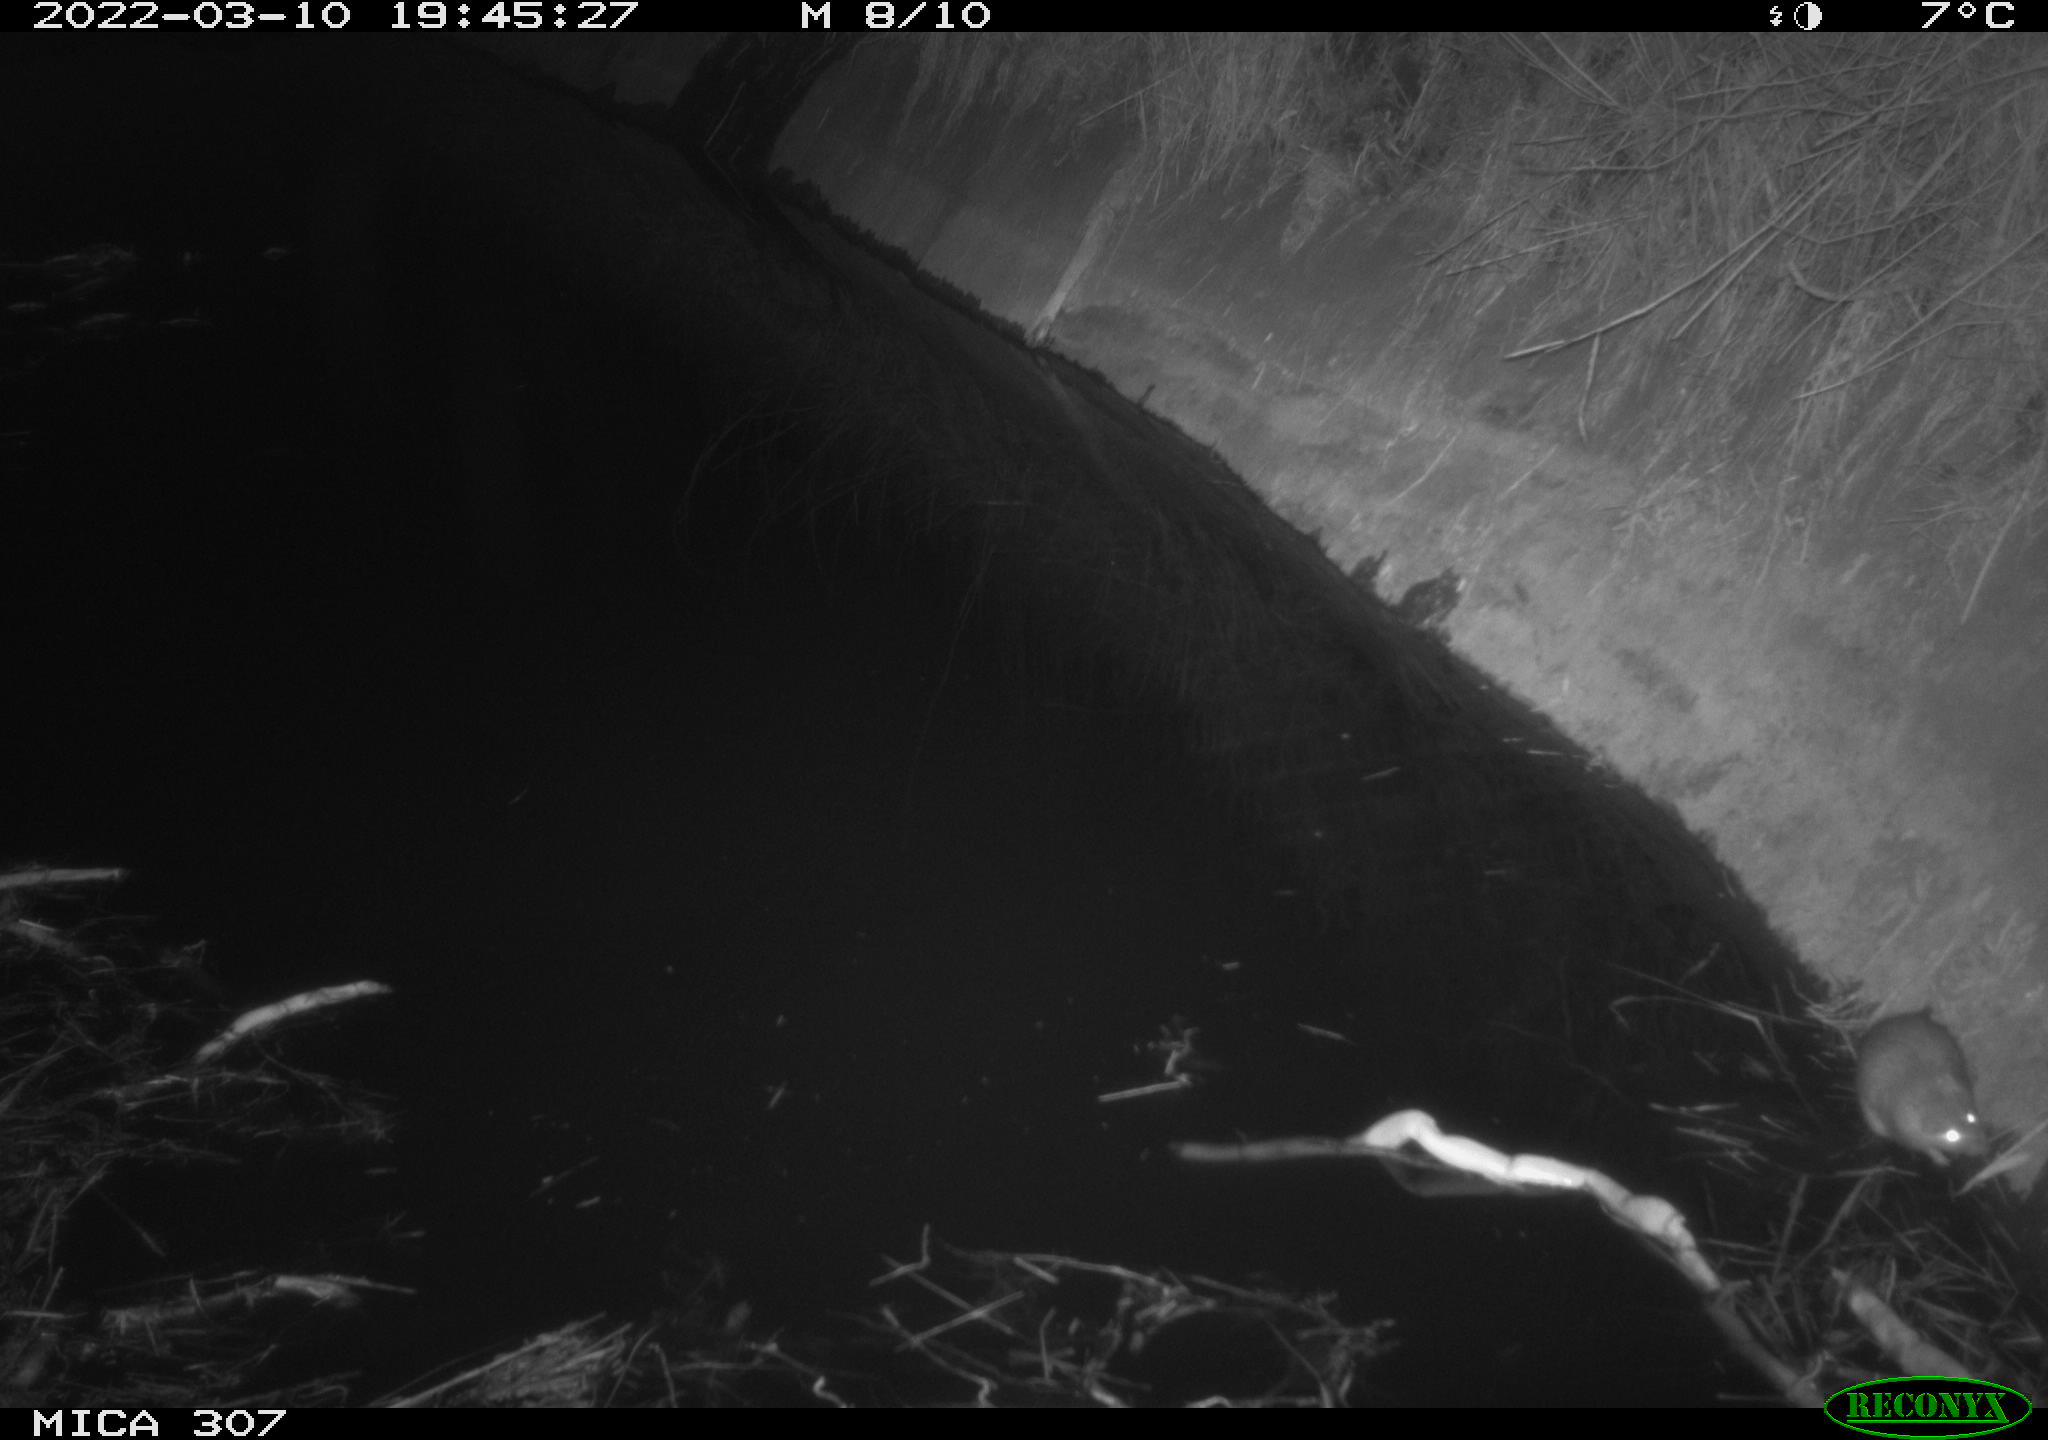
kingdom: Animalia
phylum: Chordata
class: Mammalia
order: Rodentia
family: Muridae
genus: Rattus
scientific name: Rattus norvegicus
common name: Brown rat
